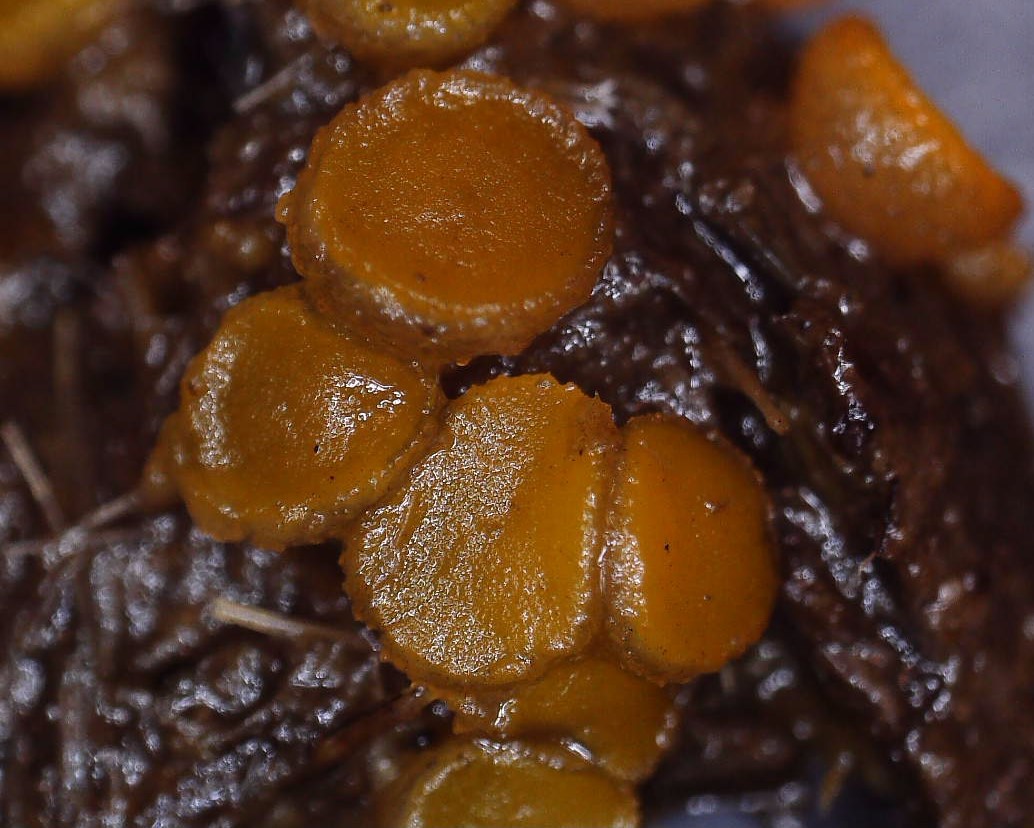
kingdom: Fungi
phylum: Ascomycota
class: Pezizomycetes
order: Pezizales
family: Pyronemataceae
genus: Cheilymenia
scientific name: Cheilymenia granulata
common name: møgbæger
